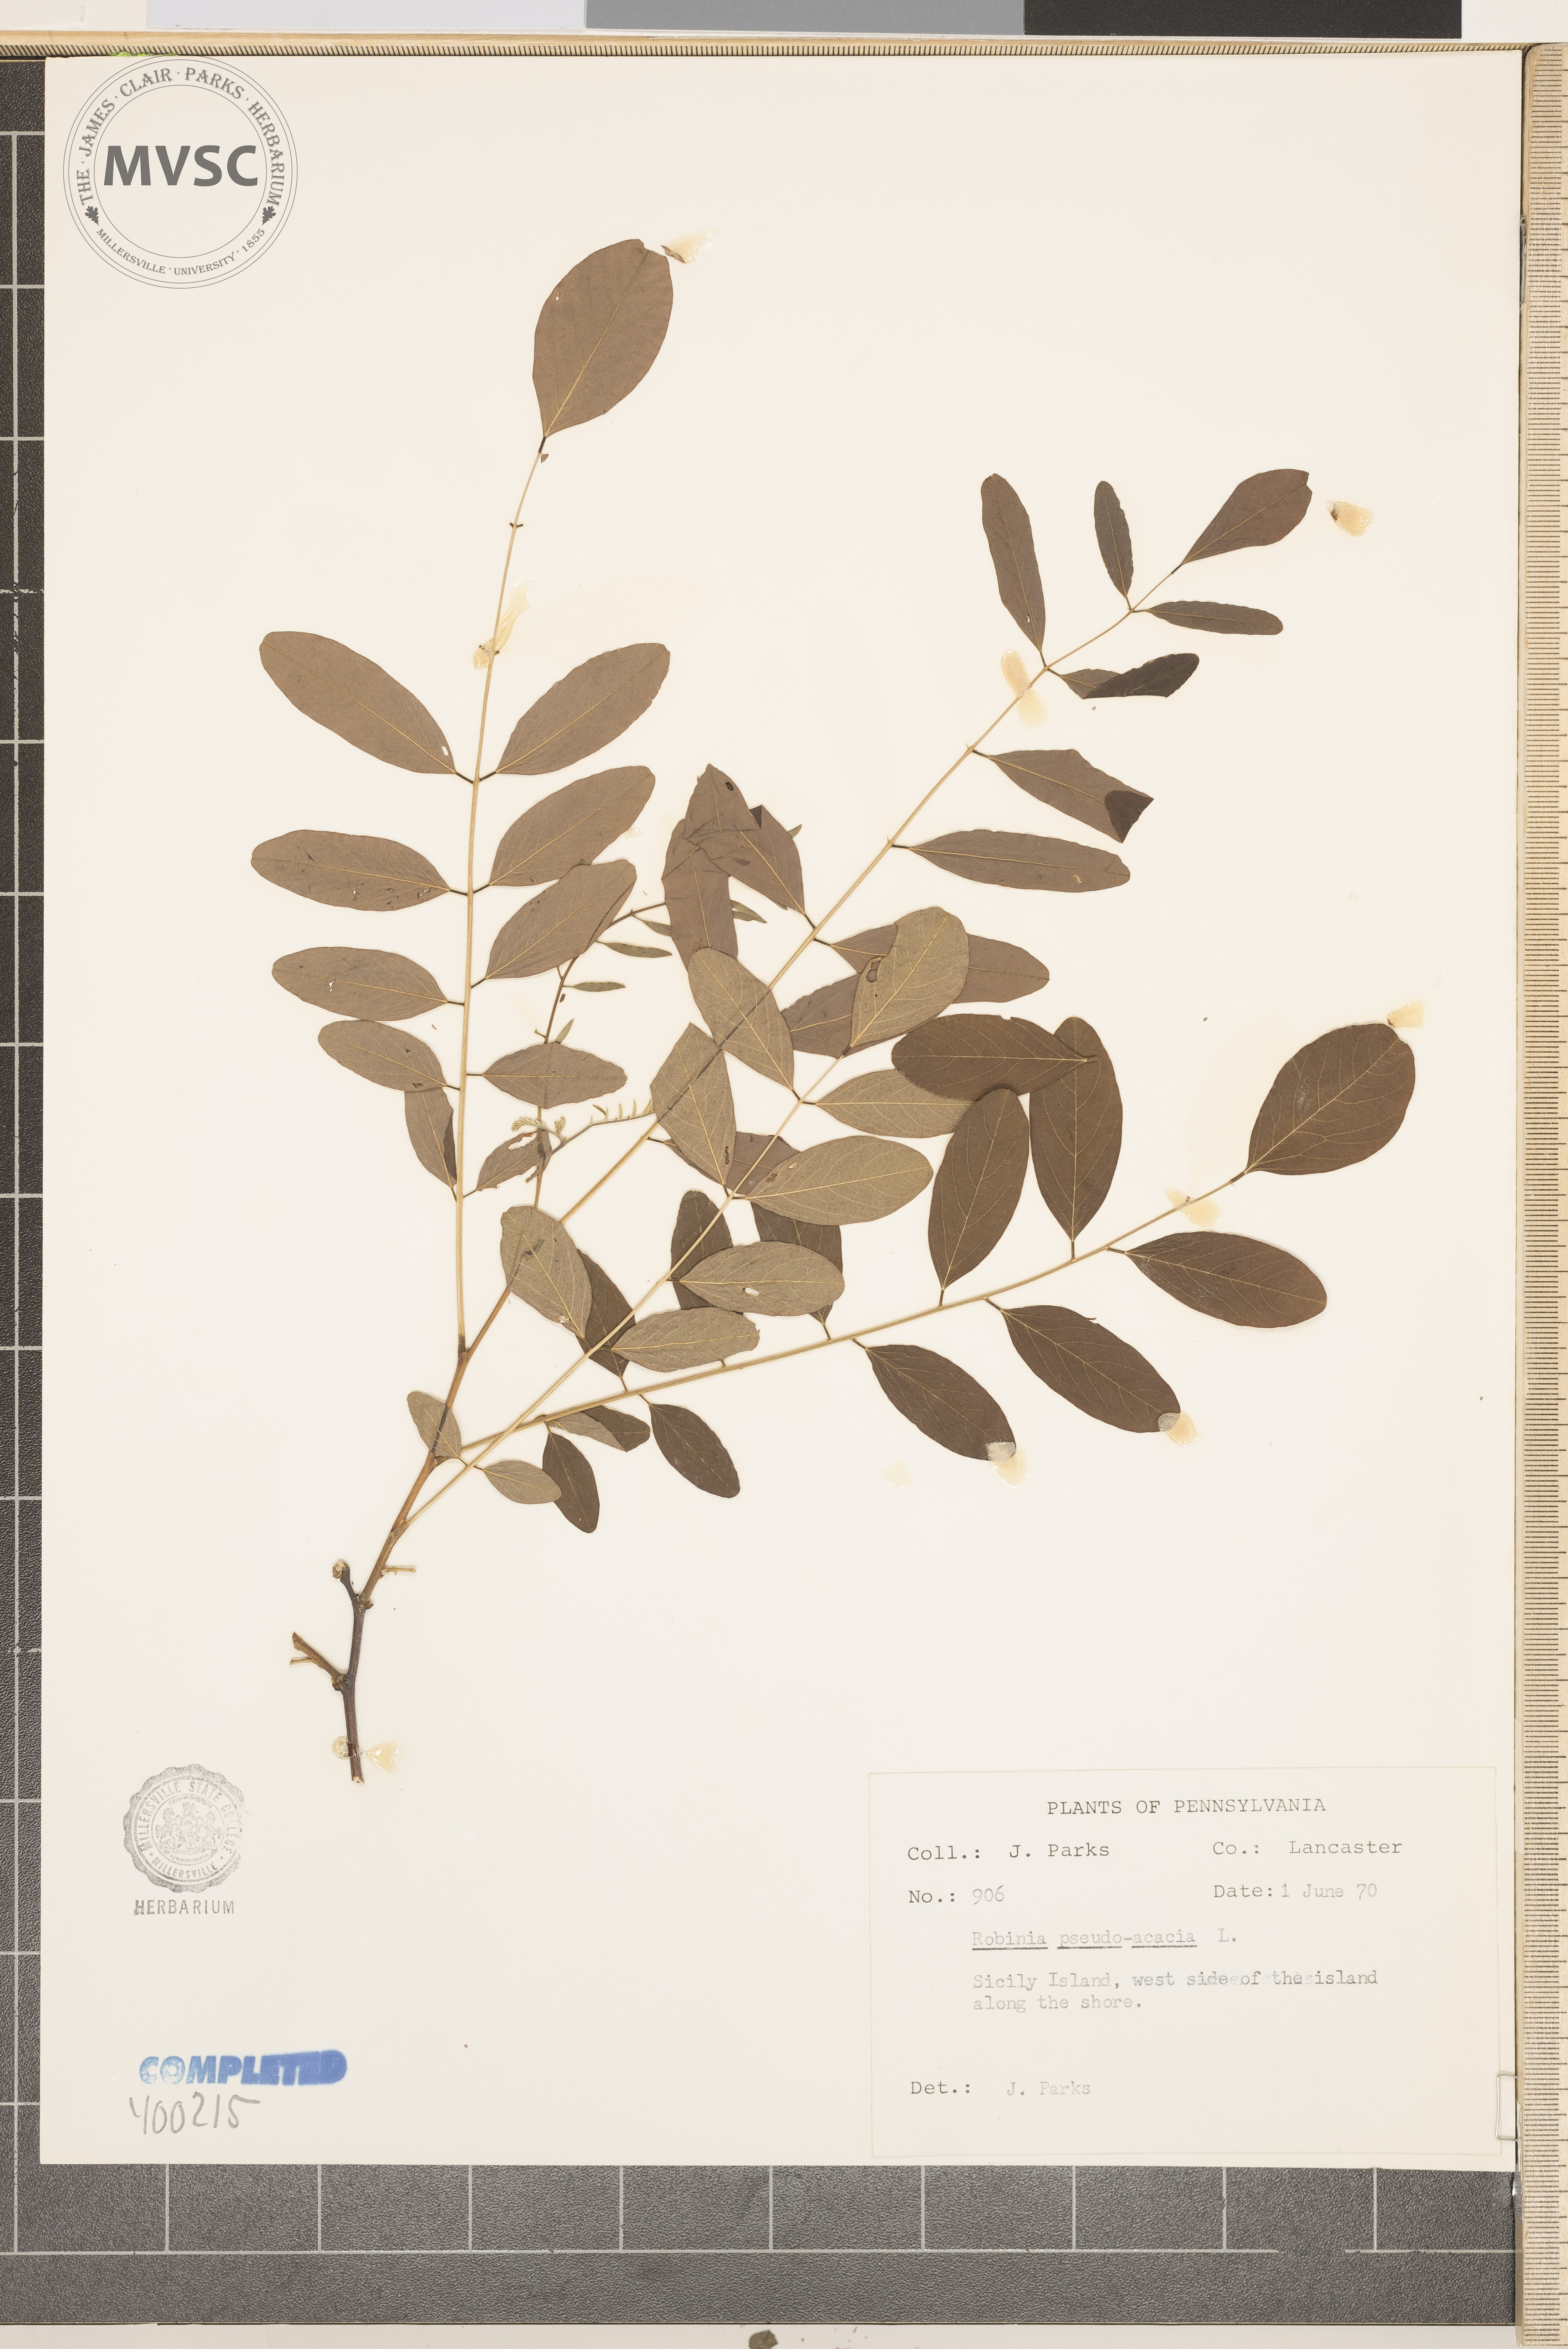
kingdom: Plantae
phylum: Tracheophyta
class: Magnoliopsida
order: Fabales
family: Fabaceae
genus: Robinia
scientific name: Robinia pseudoacacia
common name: black locust
